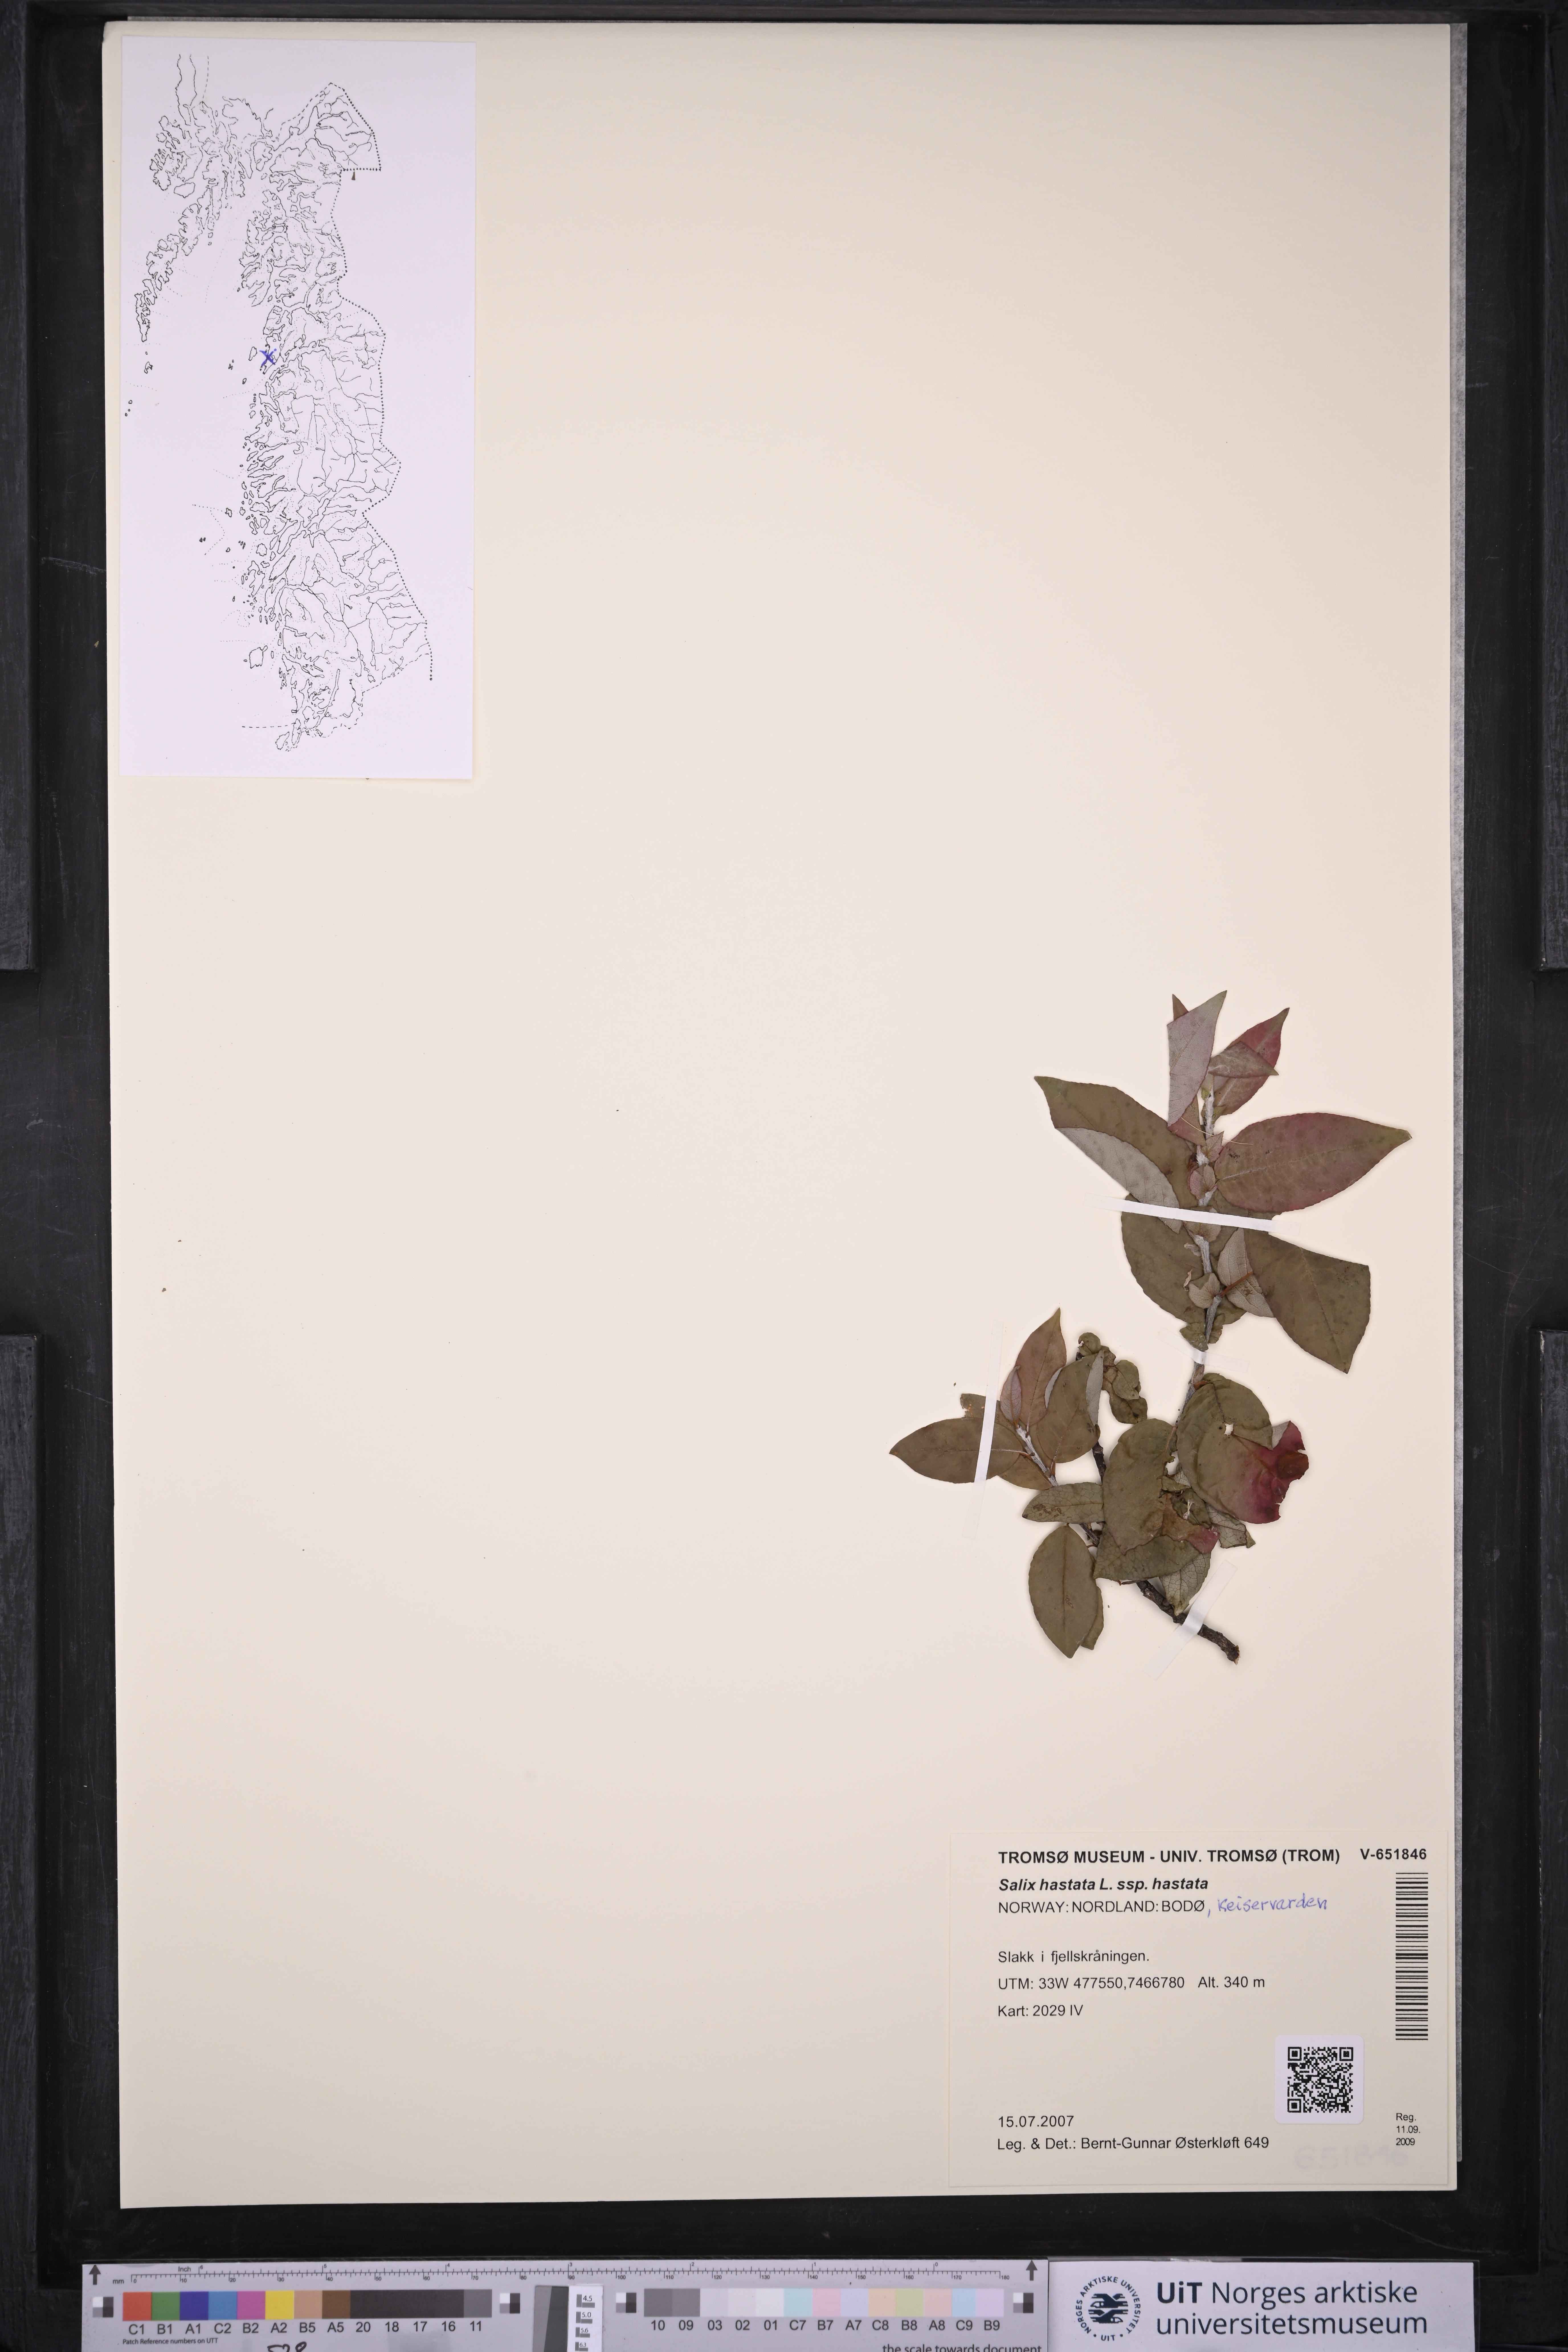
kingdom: Plantae
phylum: Tracheophyta
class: Magnoliopsida
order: Malpighiales
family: Salicaceae
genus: Salix
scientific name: Salix hastata
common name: Halberd willow
